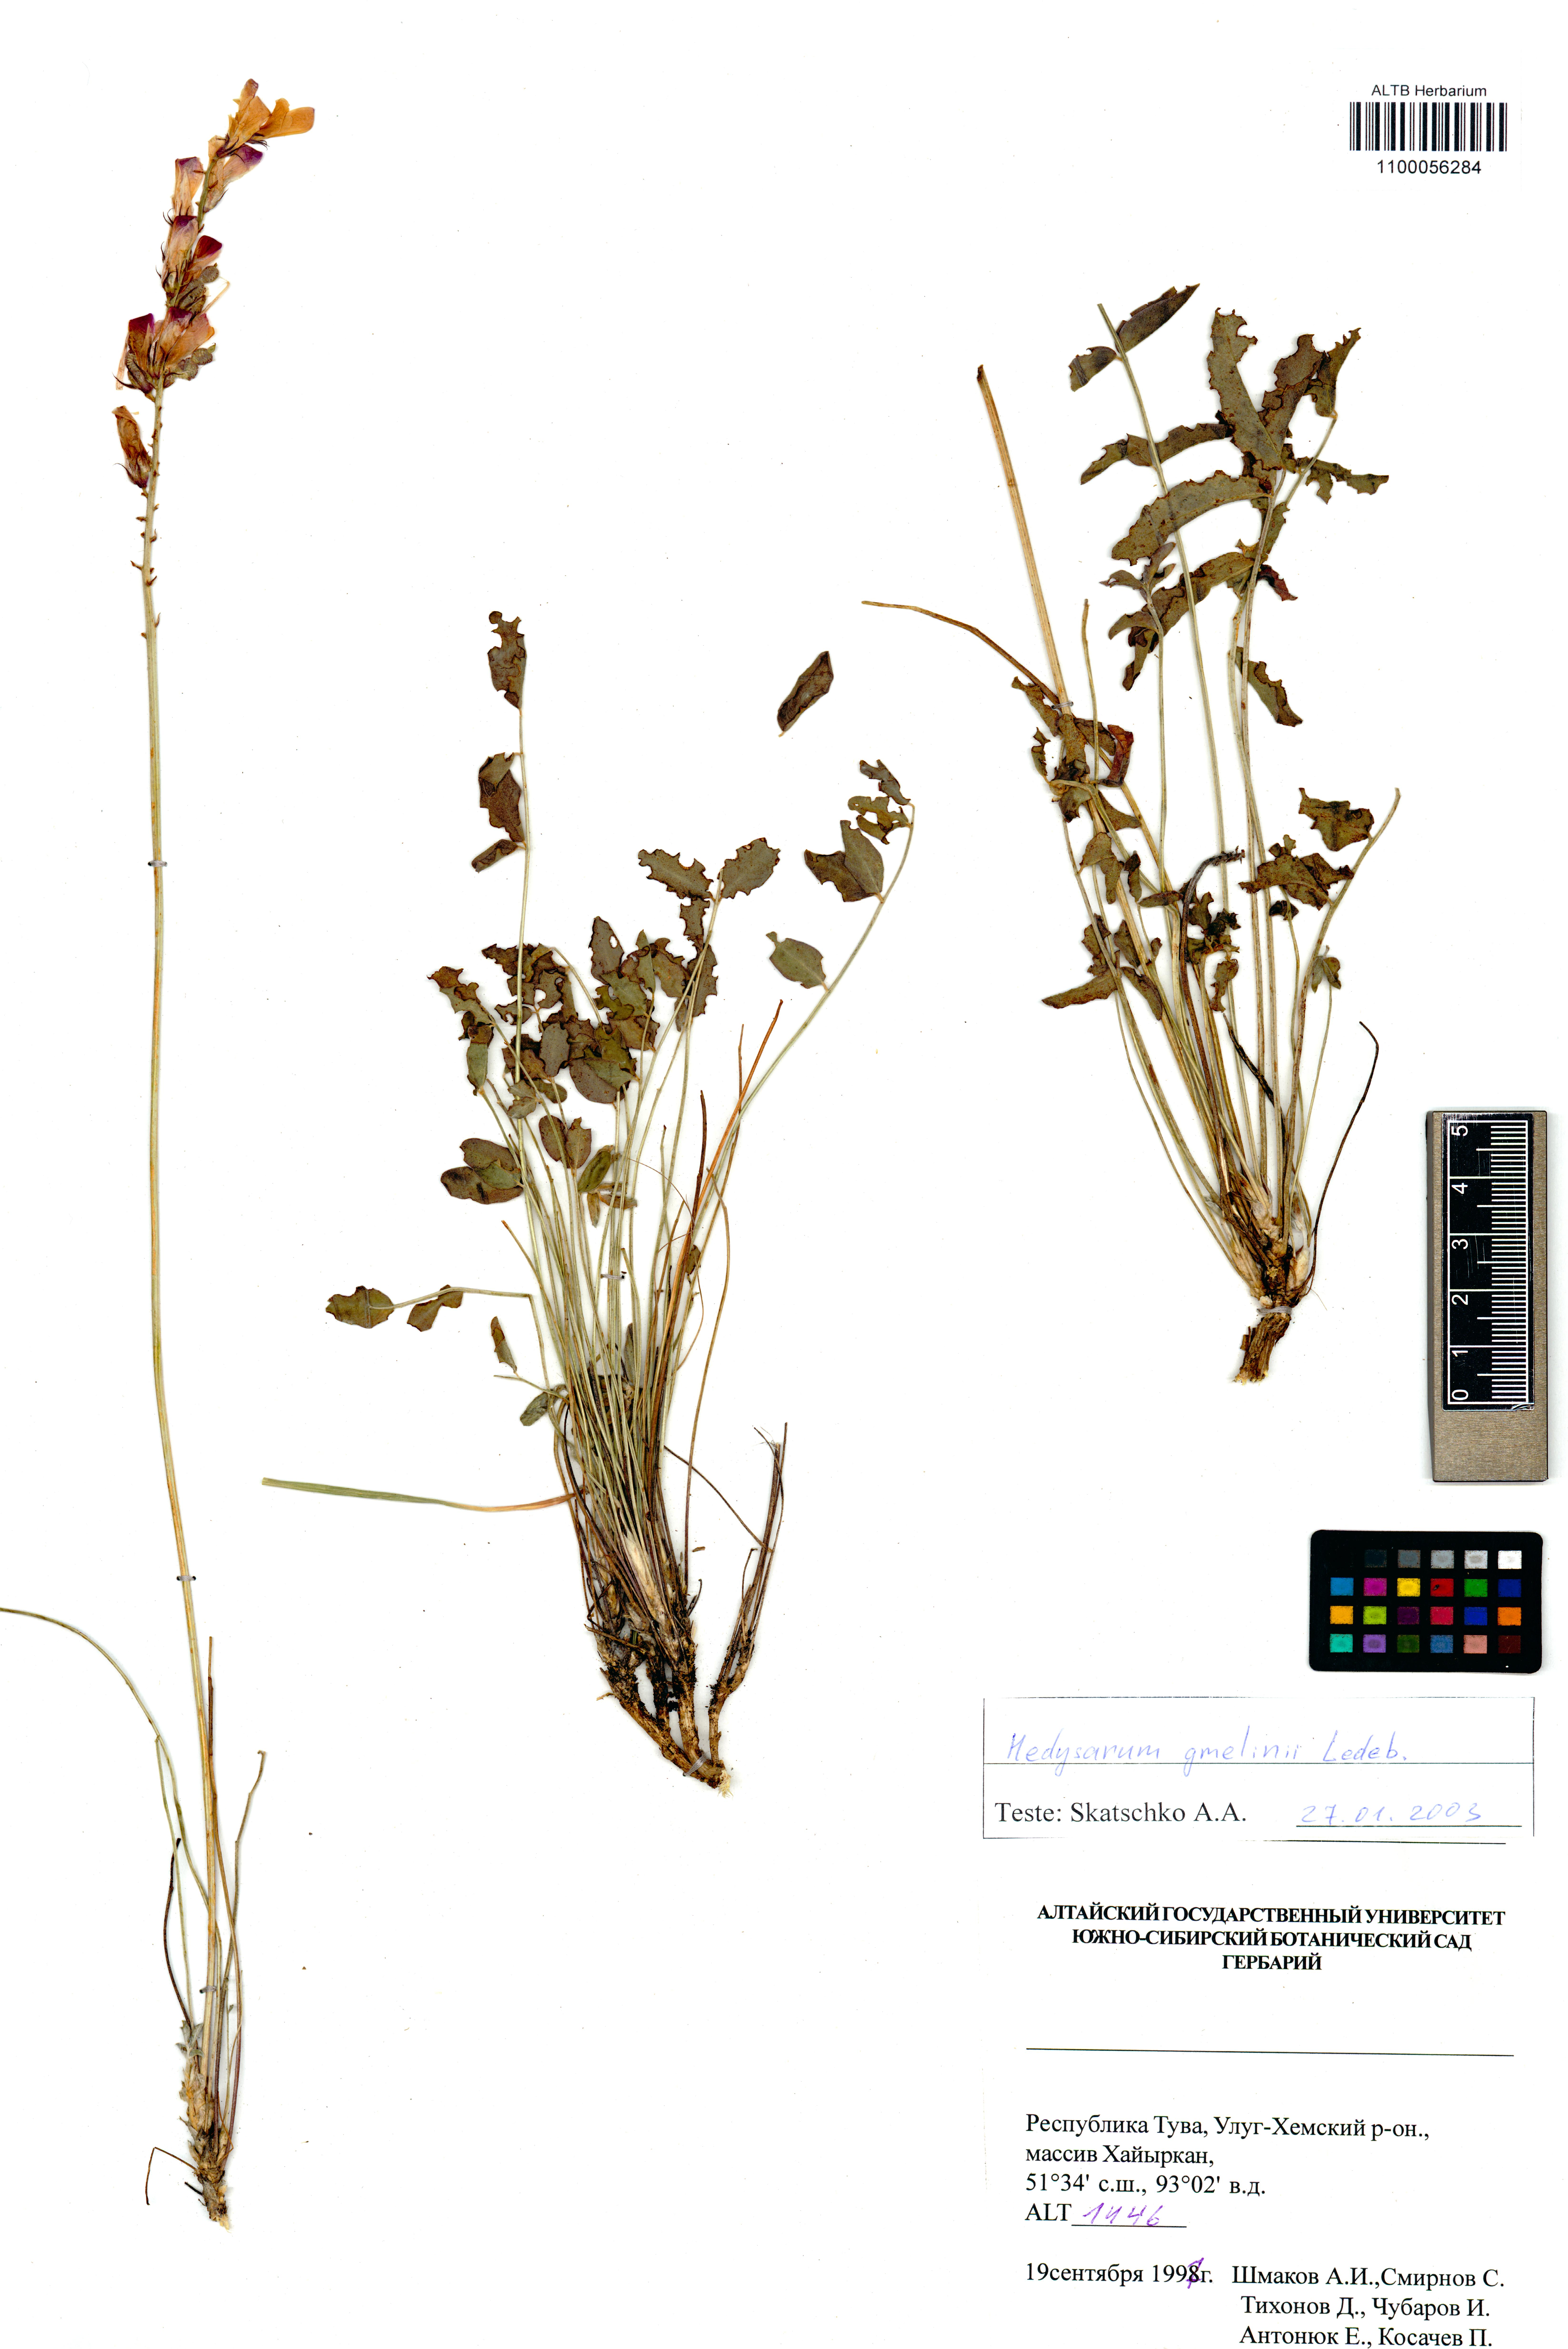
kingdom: Plantae
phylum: Tracheophyta
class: Magnoliopsida
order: Fabales
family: Fabaceae
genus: Hedysarum
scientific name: Hedysarum gmelinii
